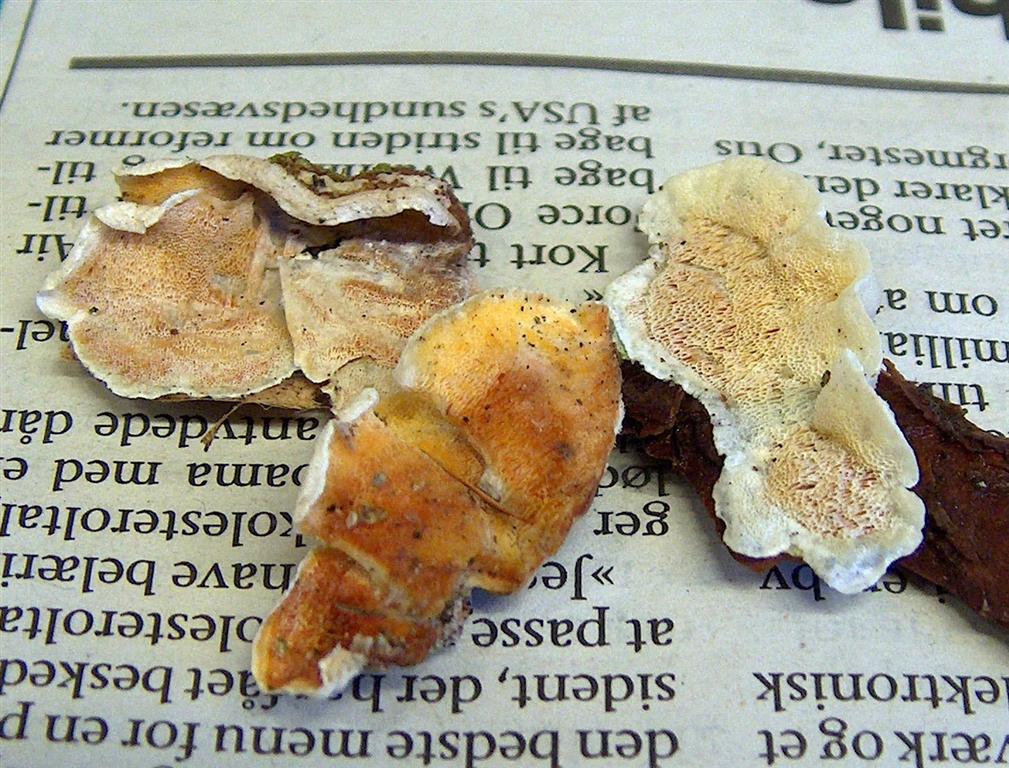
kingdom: Fungi
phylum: Basidiomycota
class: Agaricomycetes
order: Polyporales
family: Incrustoporiaceae
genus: Skeletocutis
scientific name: Skeletocutis amorpha
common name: orange krystalporesvamp
